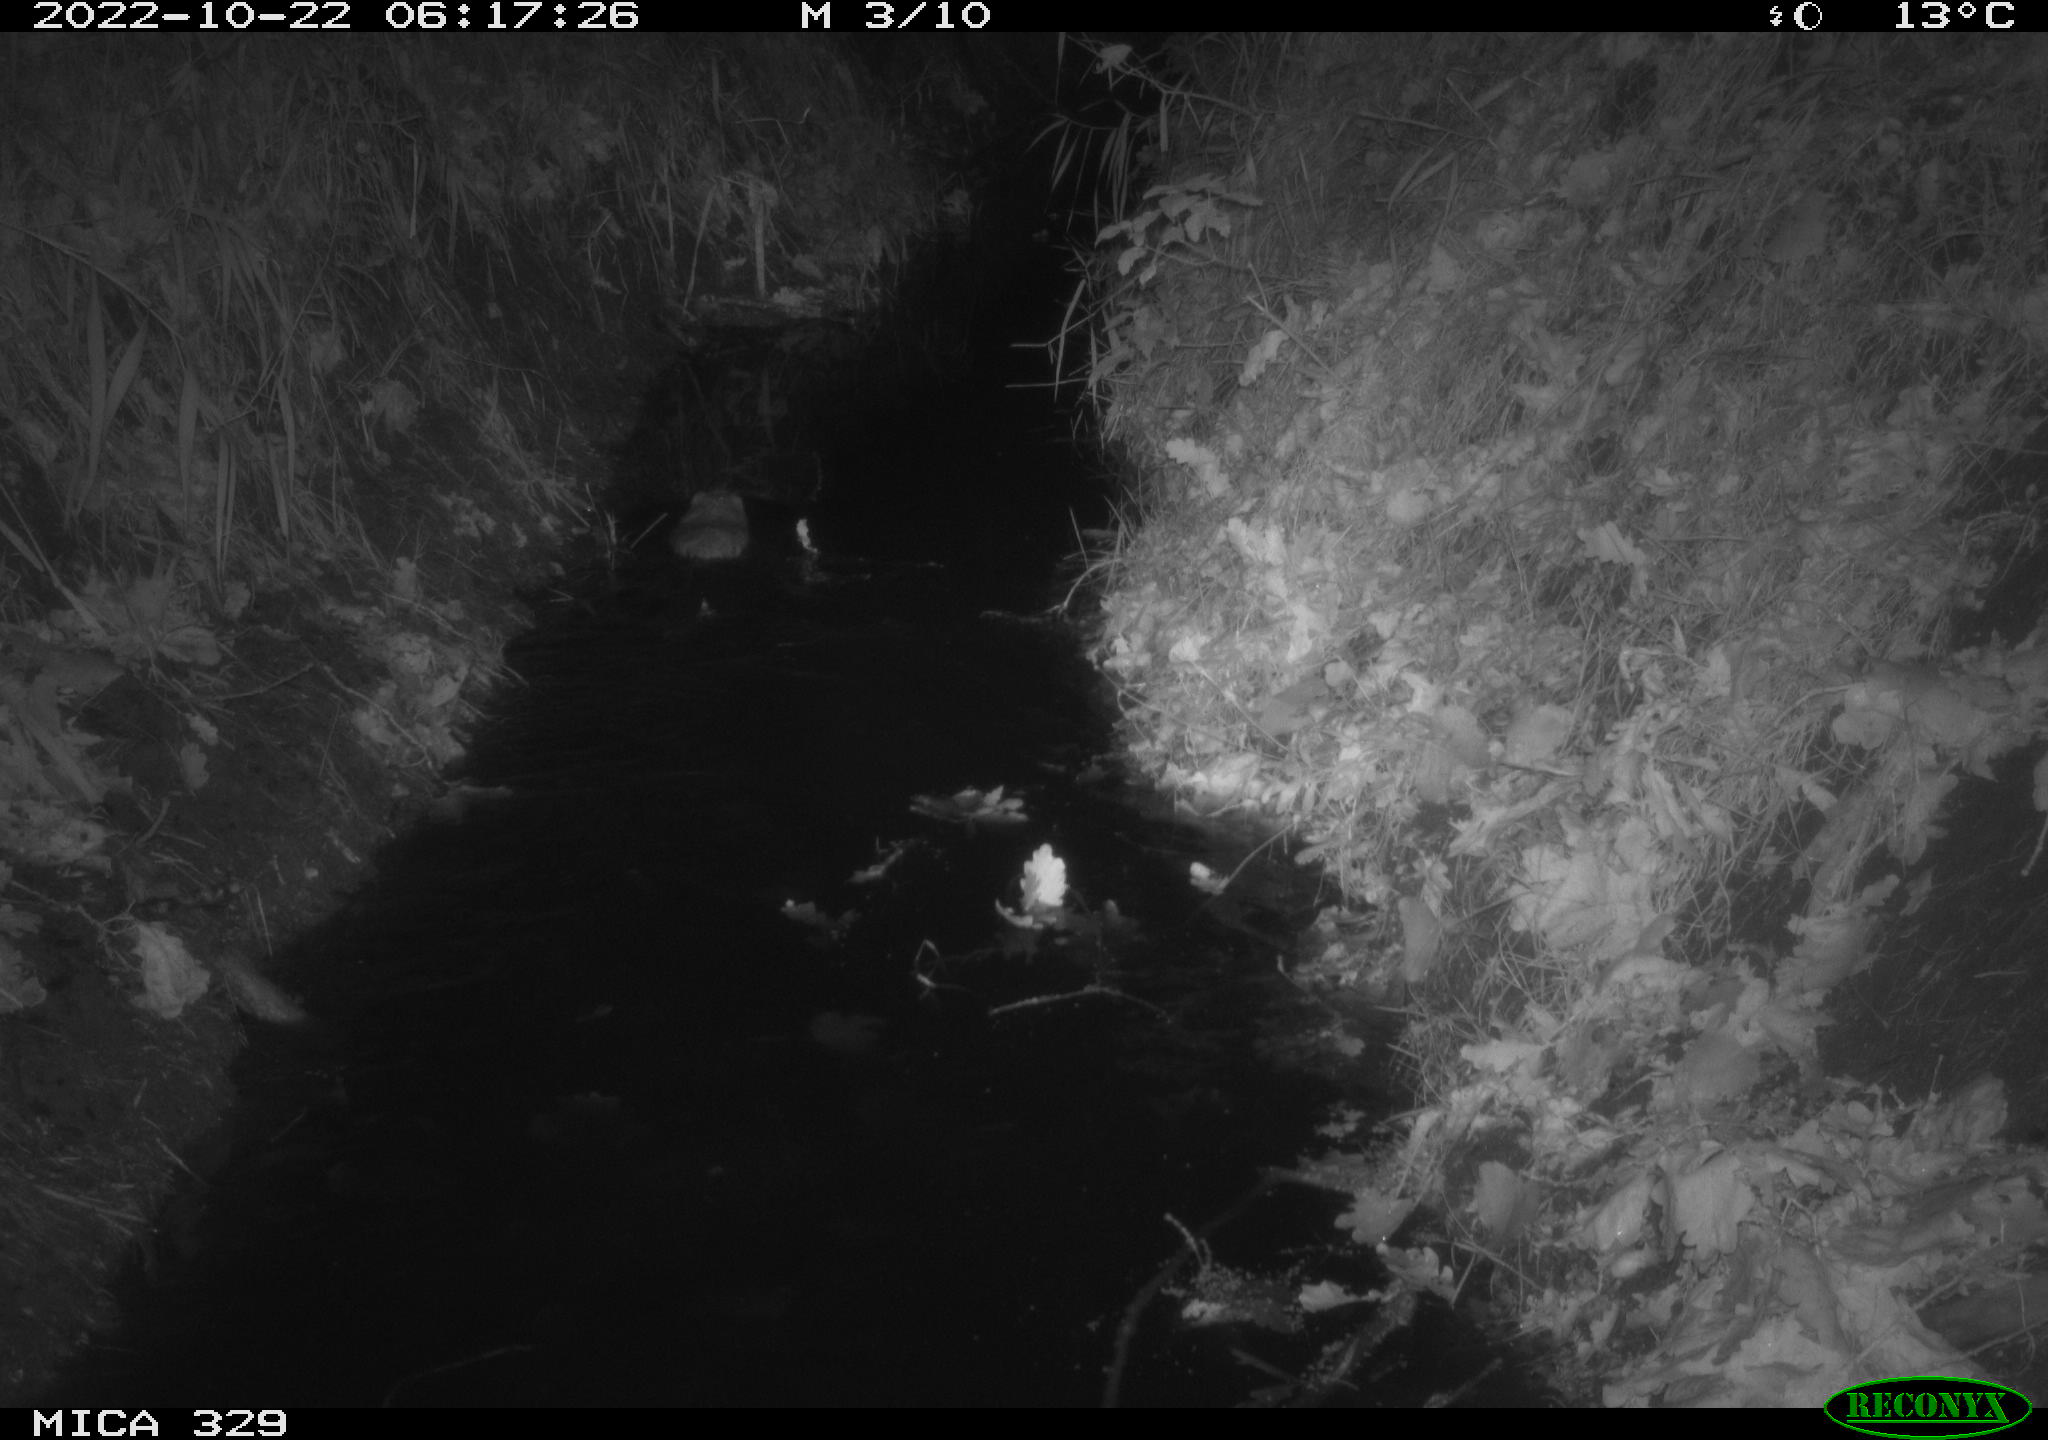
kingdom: Animalia
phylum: Chordata
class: Mammalia
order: Rodentia
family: Cricetidae
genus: Ondatra
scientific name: Ondatra zibethicus
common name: Muskrat
